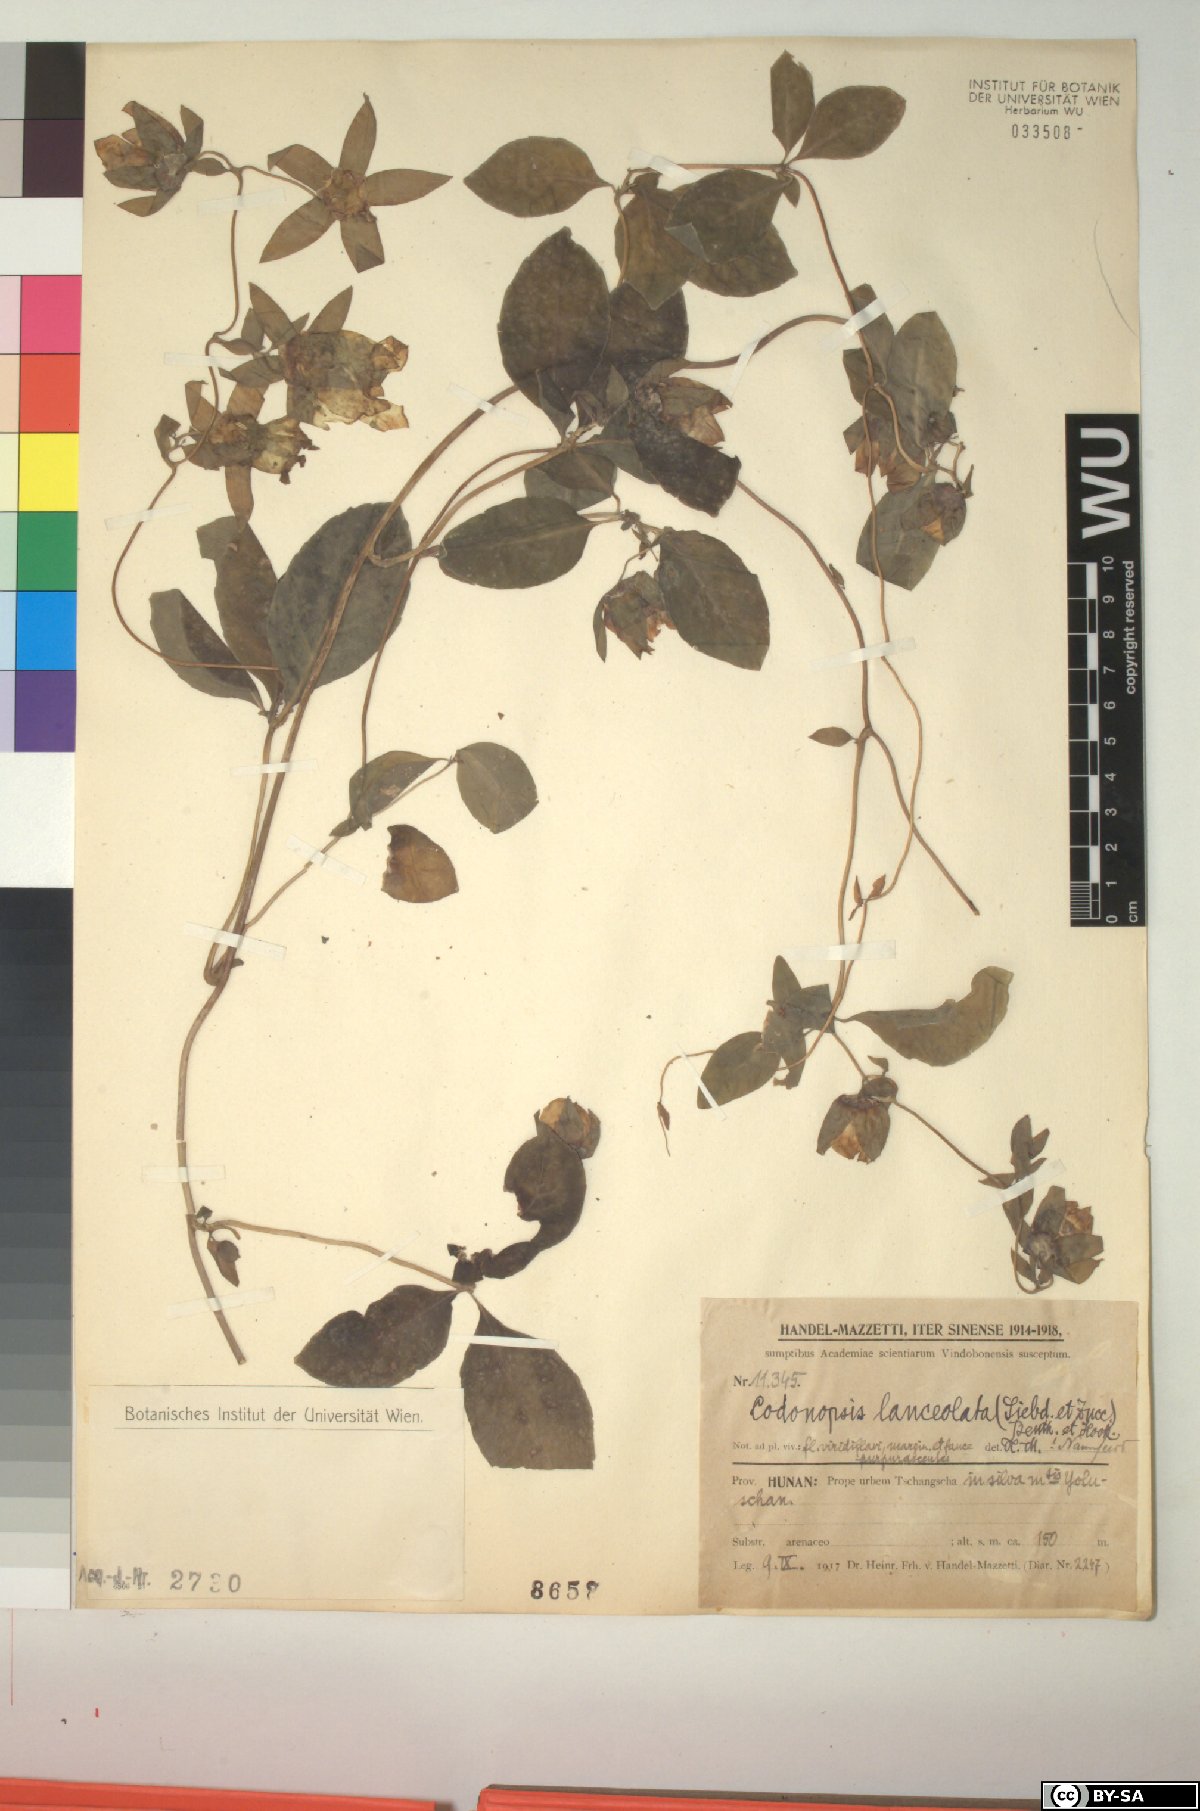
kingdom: Plantae
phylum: Tracheophyta
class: Magnoliopsida
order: Asterales
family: Campanulaceae
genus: Codonopsis
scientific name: Codonopsis lanceolata
